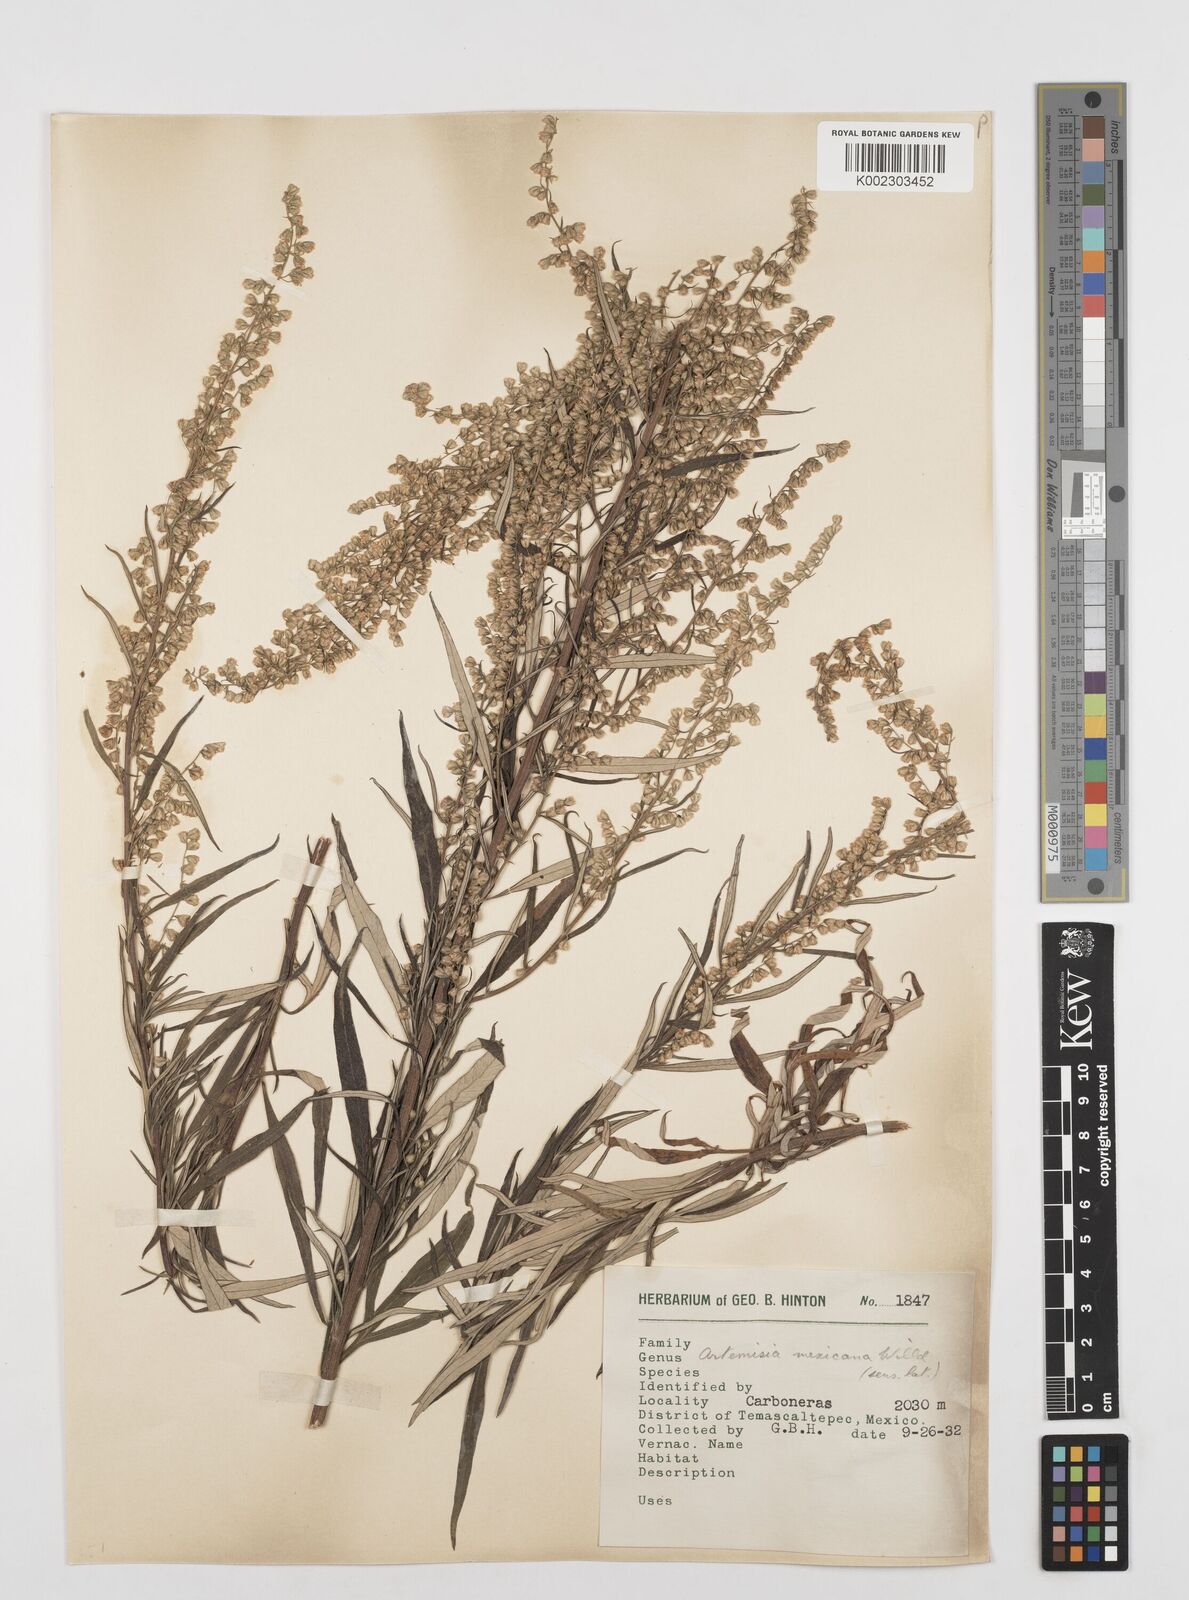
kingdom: Plantae
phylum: Tracheophyta
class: Magnoliopsida
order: Asterales
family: Asteraceae
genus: Artemisia
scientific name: Artemisia ludoviciana
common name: Western mugwort
